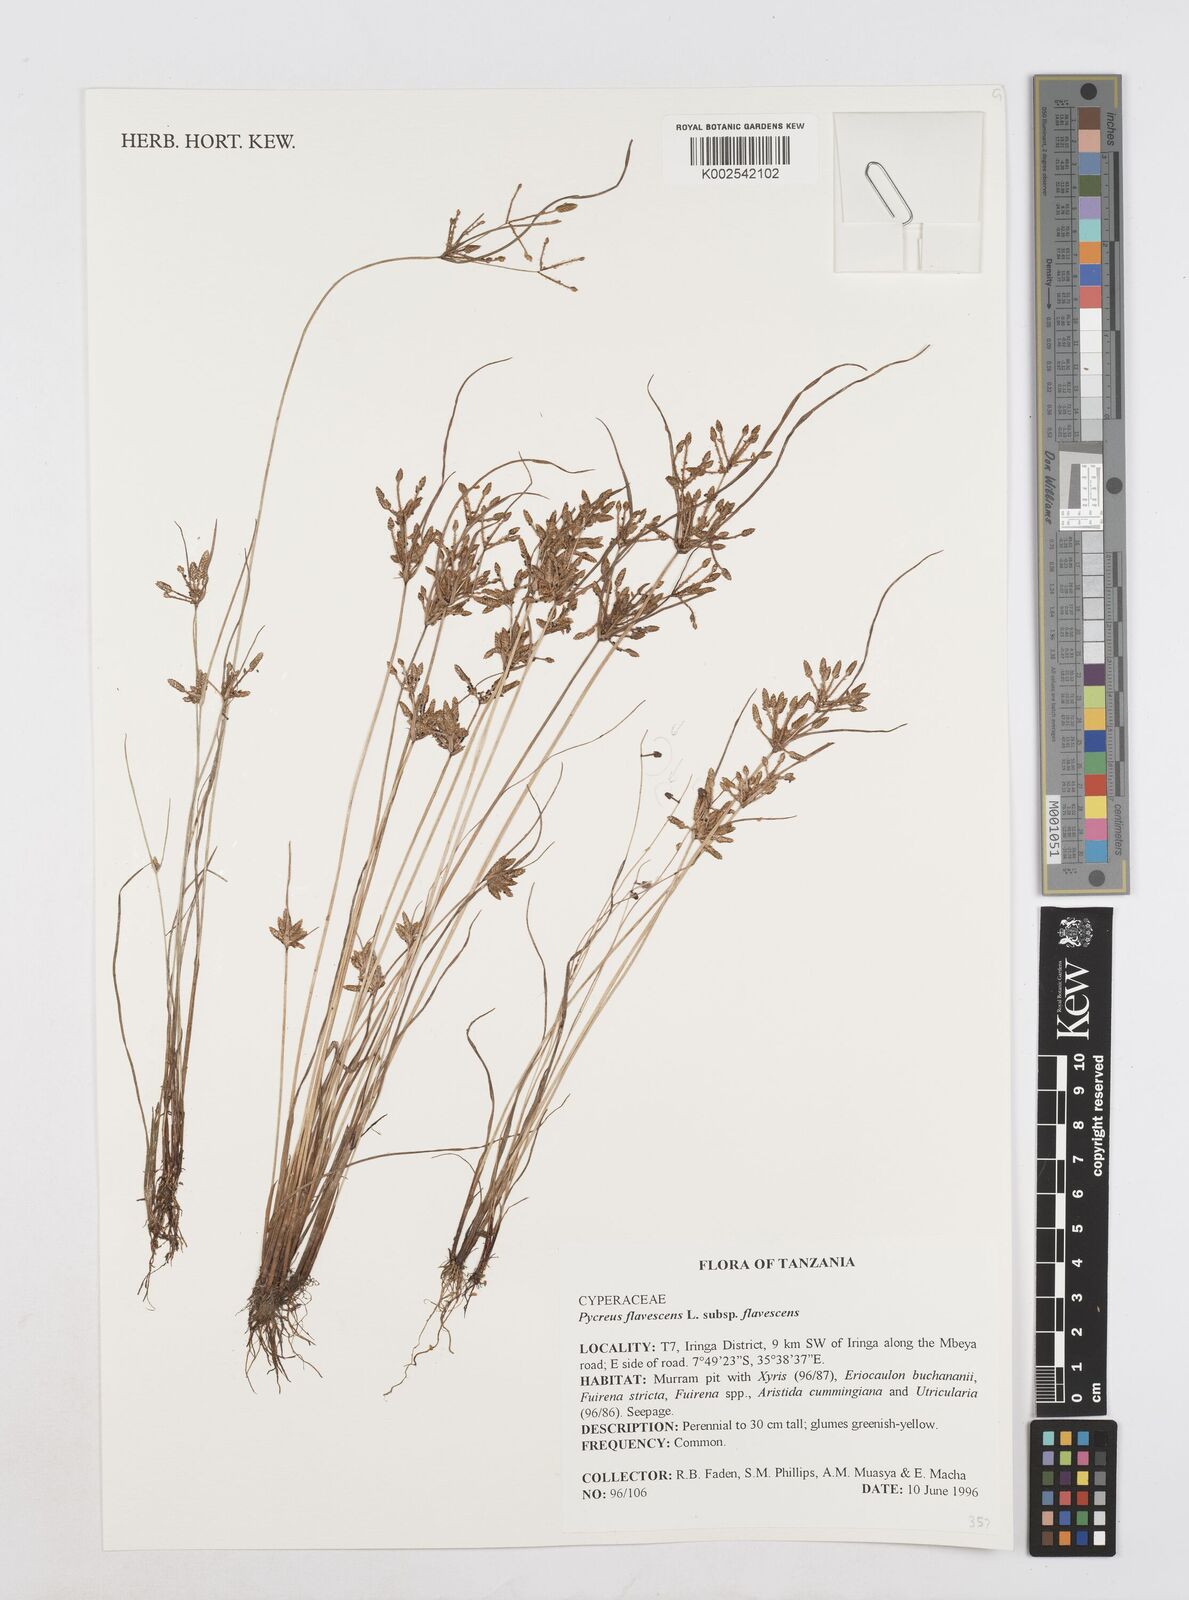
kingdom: Plantae
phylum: Tracheophyta
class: Liliopsida
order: Poales
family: Cyperaceae
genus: Cyperus
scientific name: Cyperus flavescens
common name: Yellow galingale
